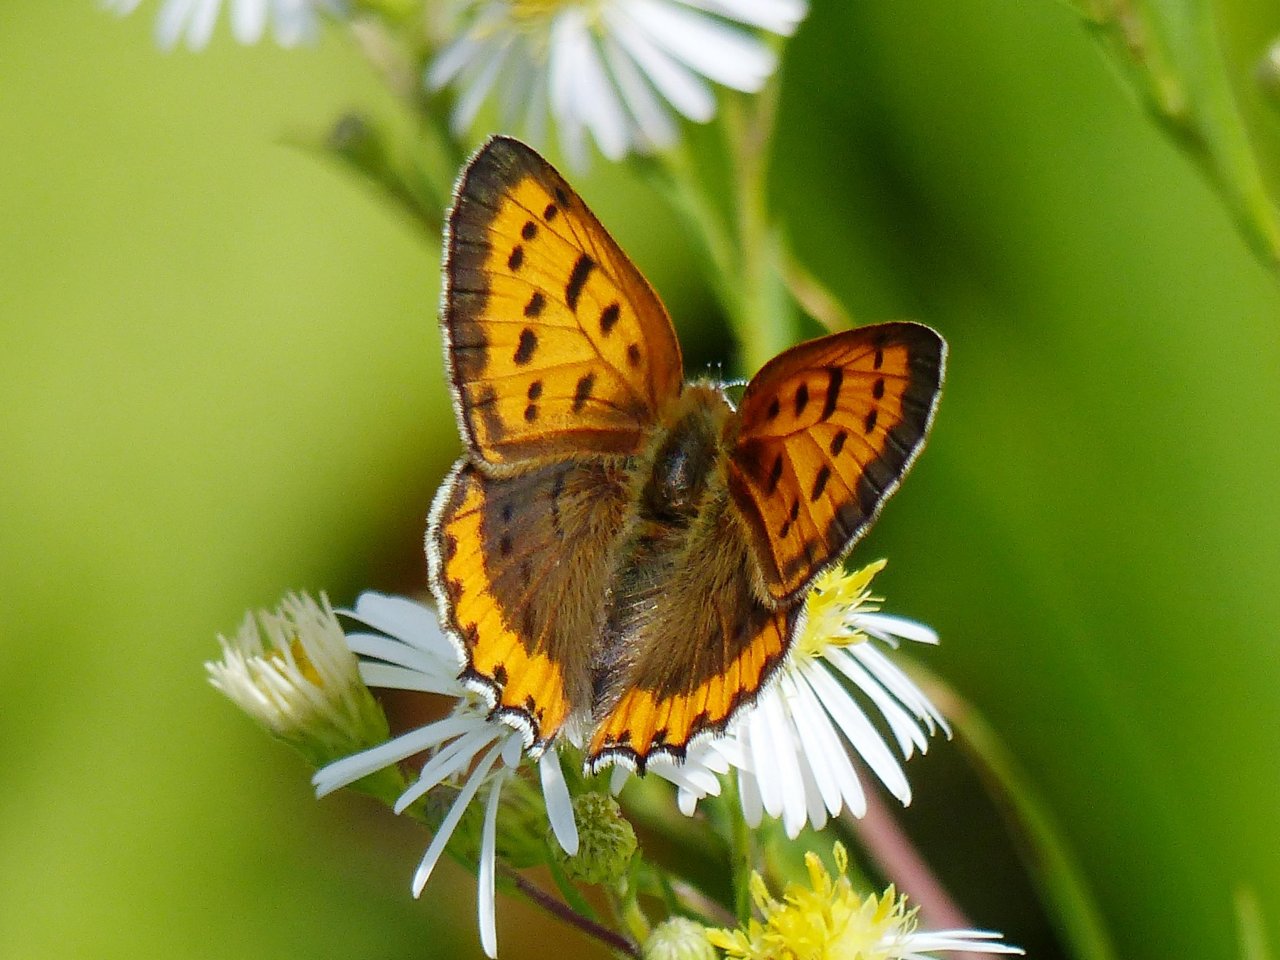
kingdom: Animalia
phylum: Arthropoda
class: Insecta
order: Lepidoptera
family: Sesiidae
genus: Sesia
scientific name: Sesia Lycaena hyllus
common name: Bronze Copper
